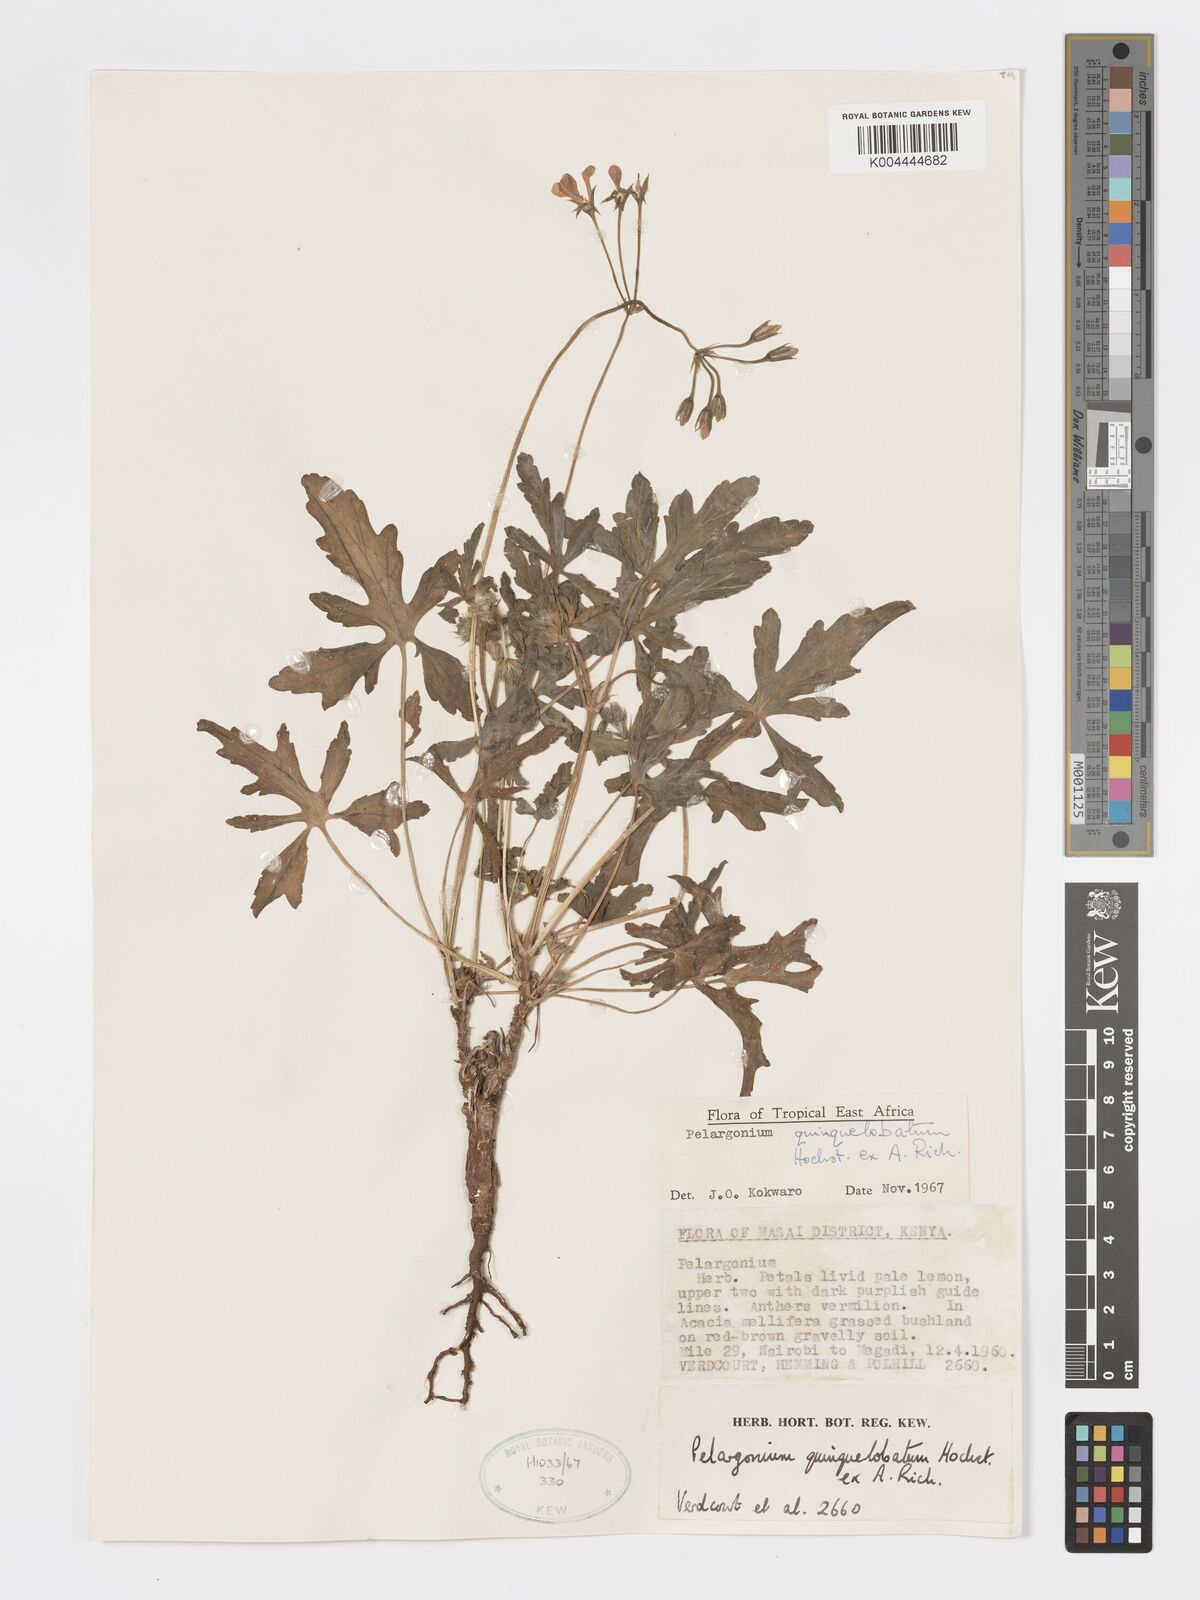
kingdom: Plantae
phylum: Tracheophyta
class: Magnoliopsida
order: Geraniales
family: Geraniaceae
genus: Pelargonium
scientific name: Pelargonium quinquelobatum
